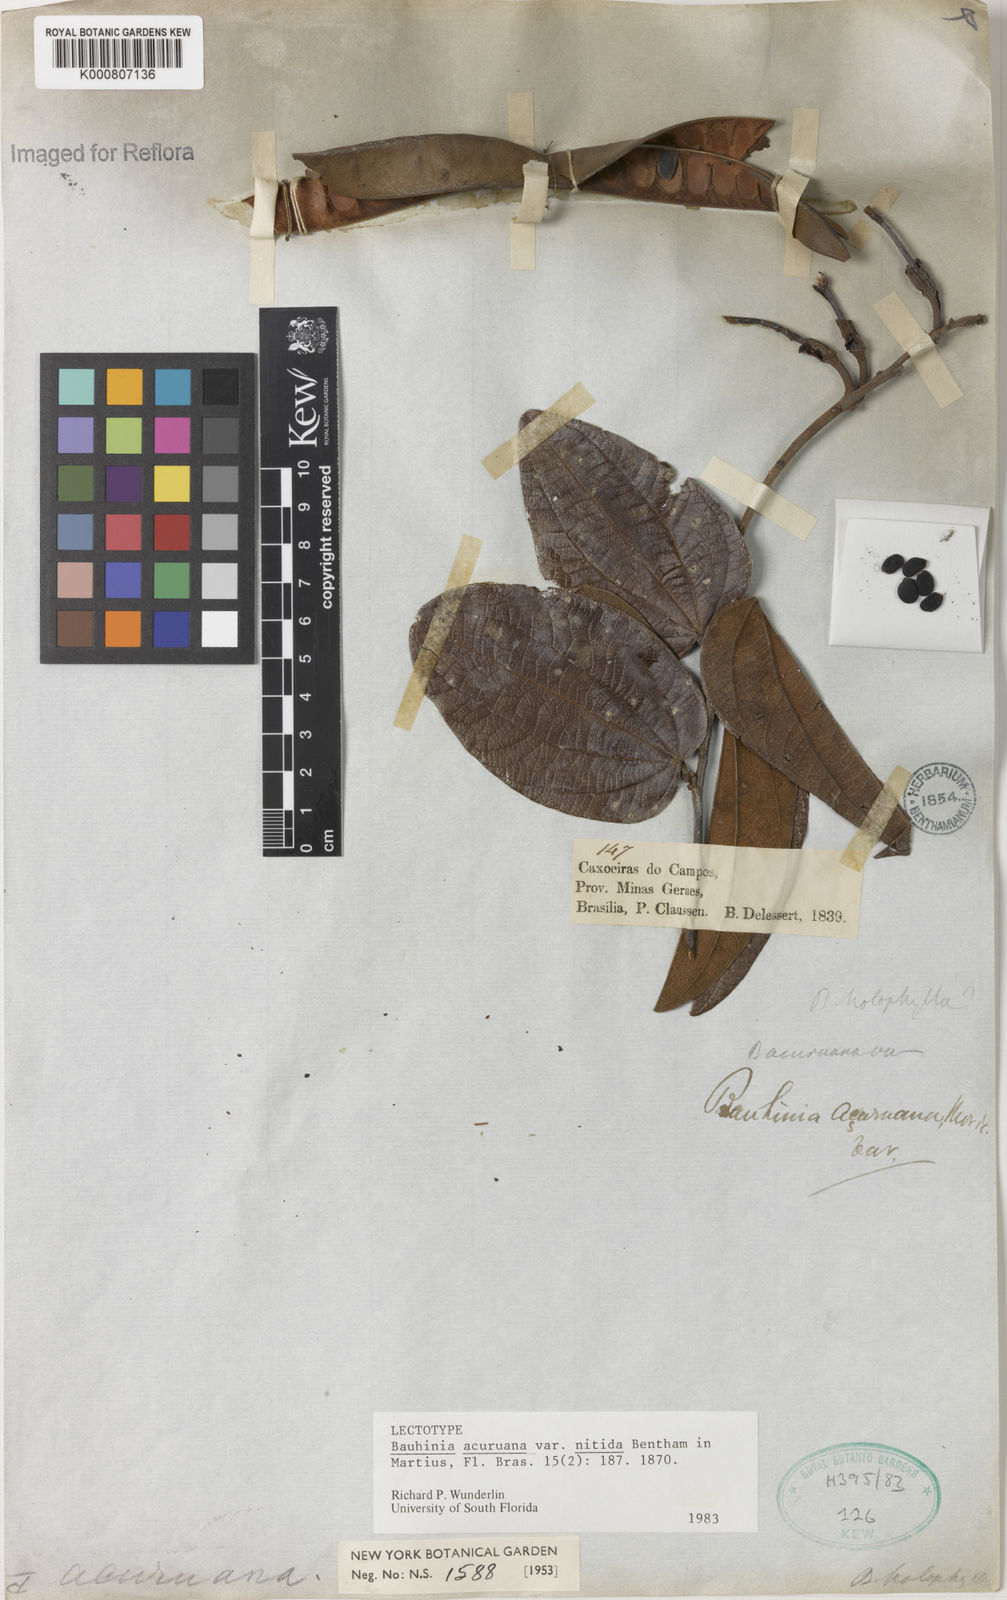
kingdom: Plantae
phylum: Tracheophyta
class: Magnoliopsida
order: Fabales
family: Fabaceae
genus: Bauhinia
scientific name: Bauhinia acuruana
